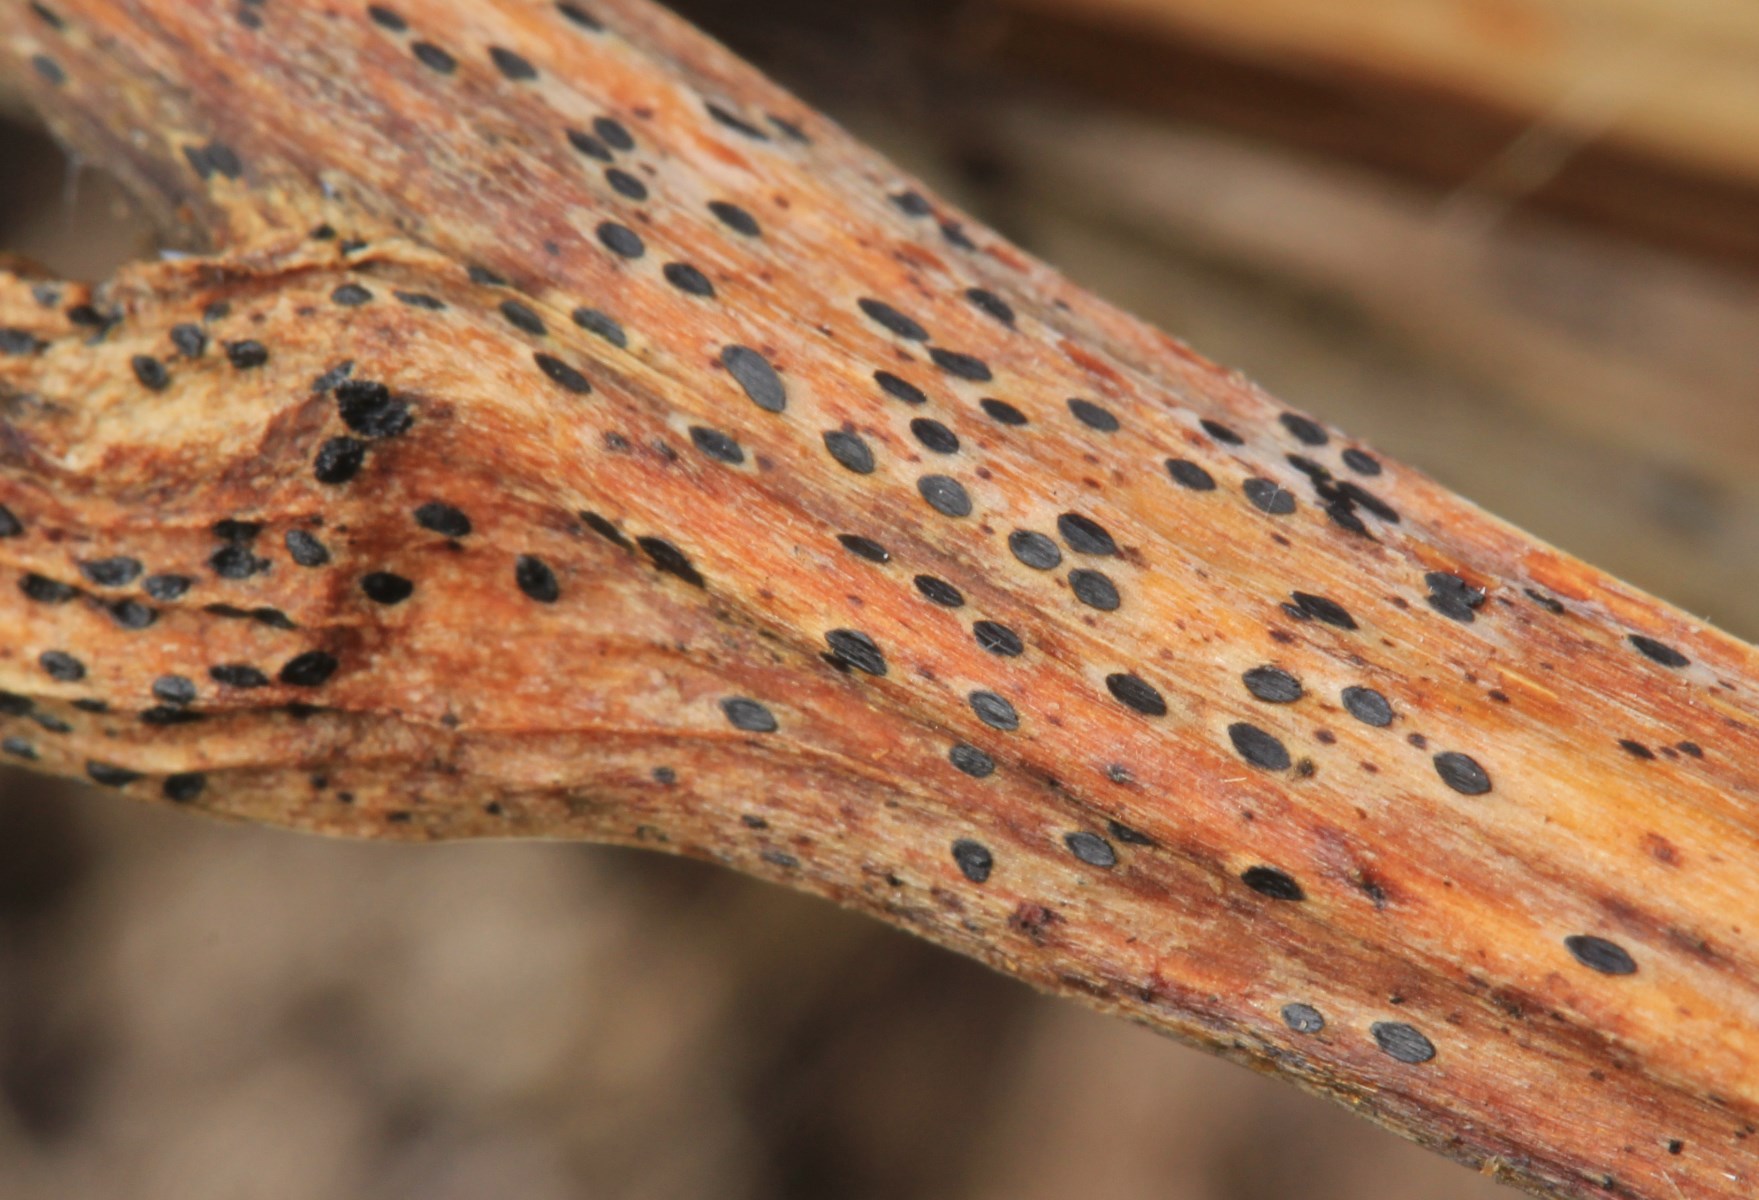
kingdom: Fungi
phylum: Ascomycota
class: Leotiomycetes
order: Rhytismatales
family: Rhytismataceae
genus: Lophodermium
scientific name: Lophodermium paeoniae
